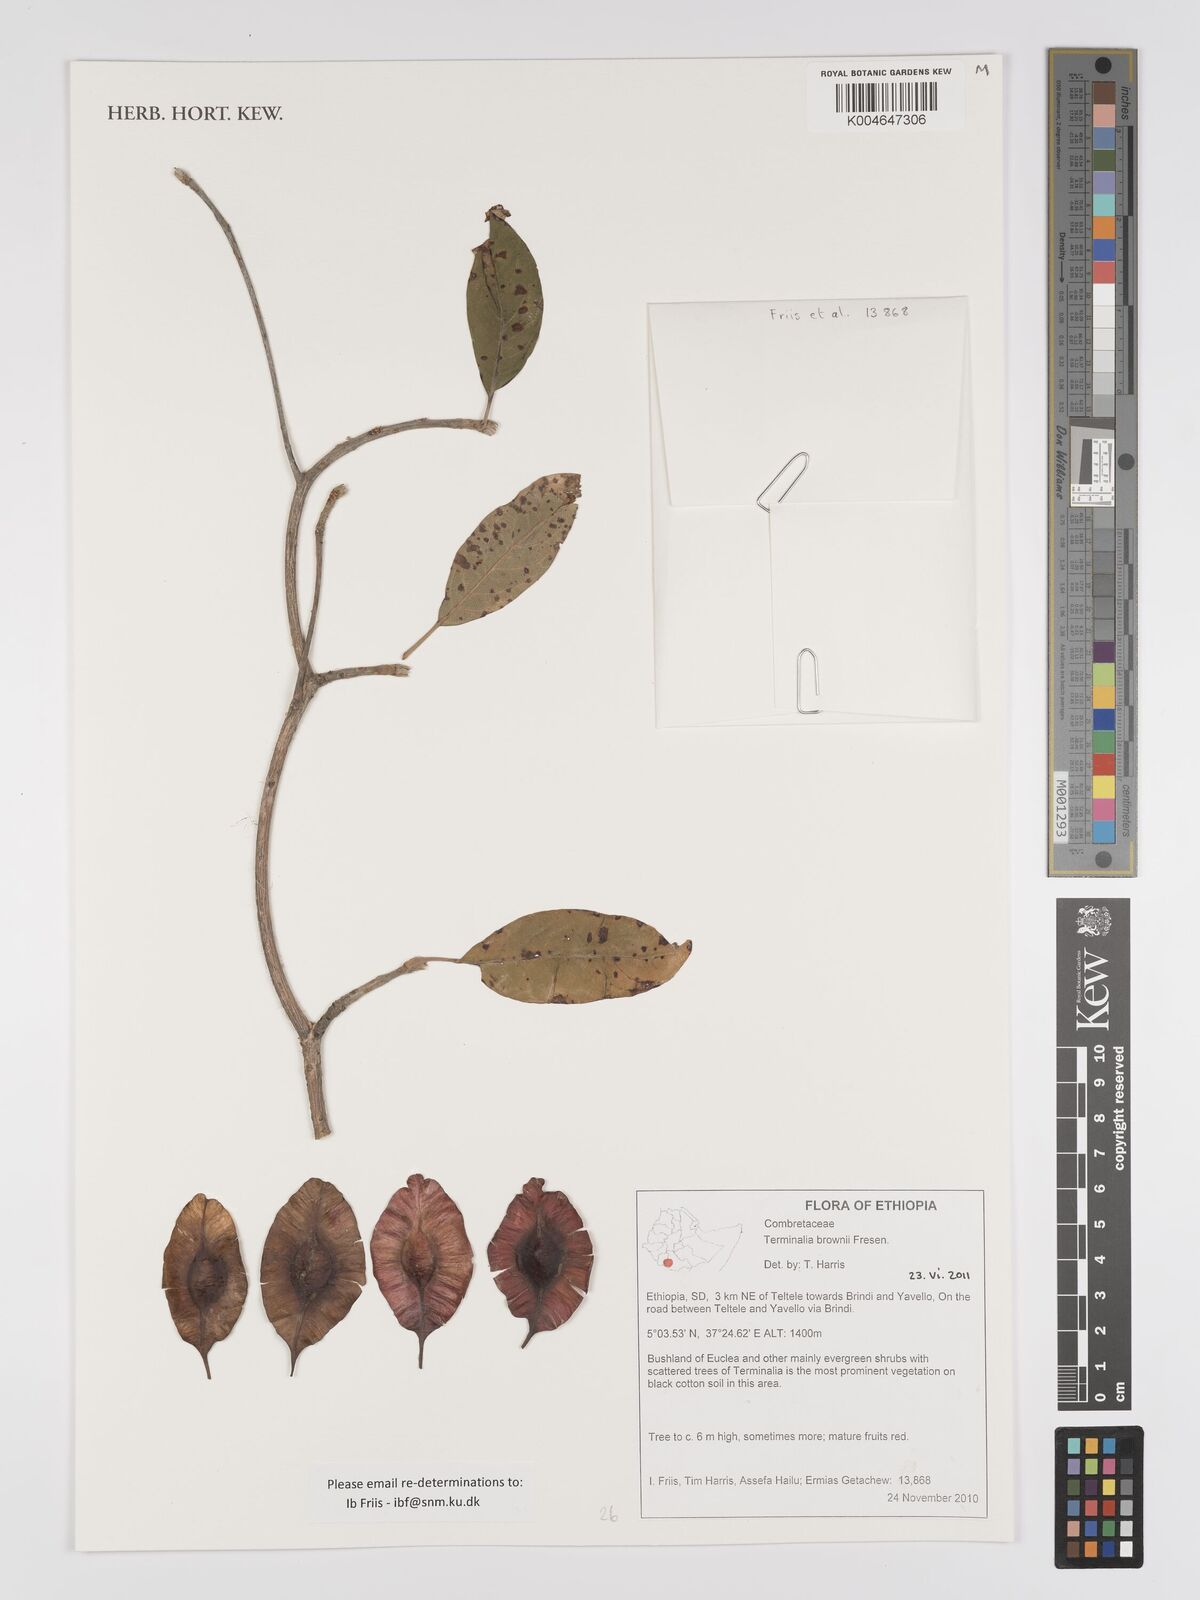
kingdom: Plantae
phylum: Tracheophyta
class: Magnoliopsida
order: Myrtales
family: Combretaceae
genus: Terminalia
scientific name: Terminalia brownii
